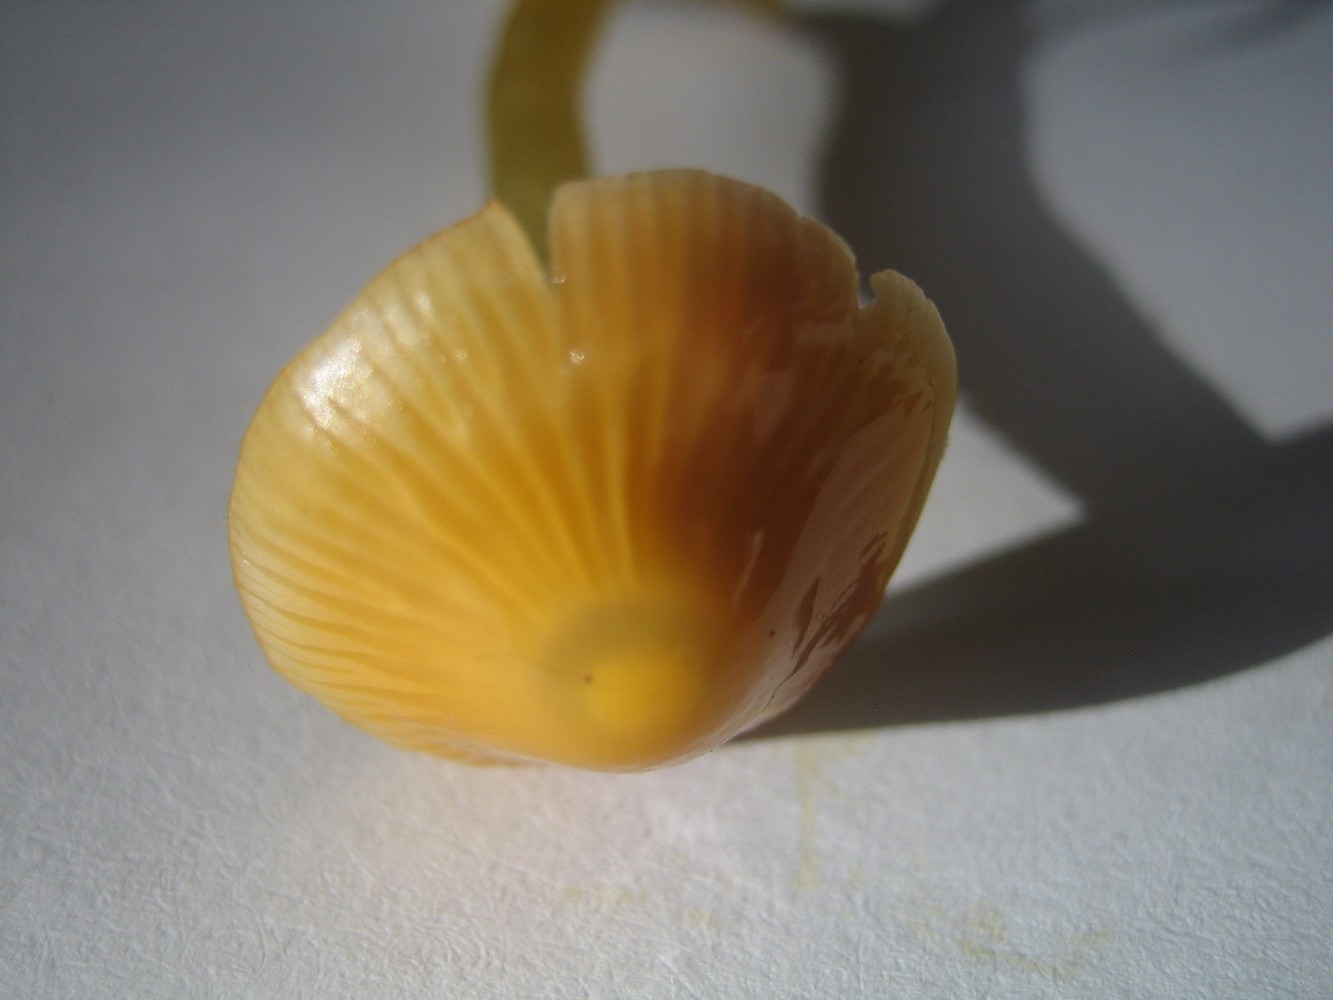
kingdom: Fungi
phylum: Basidiomycota
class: Agaricomycetes
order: Agaricales
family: Hygrophoraceae
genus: Gliophorus
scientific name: Gliophorus psittacinus
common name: papegøje-vokshat
